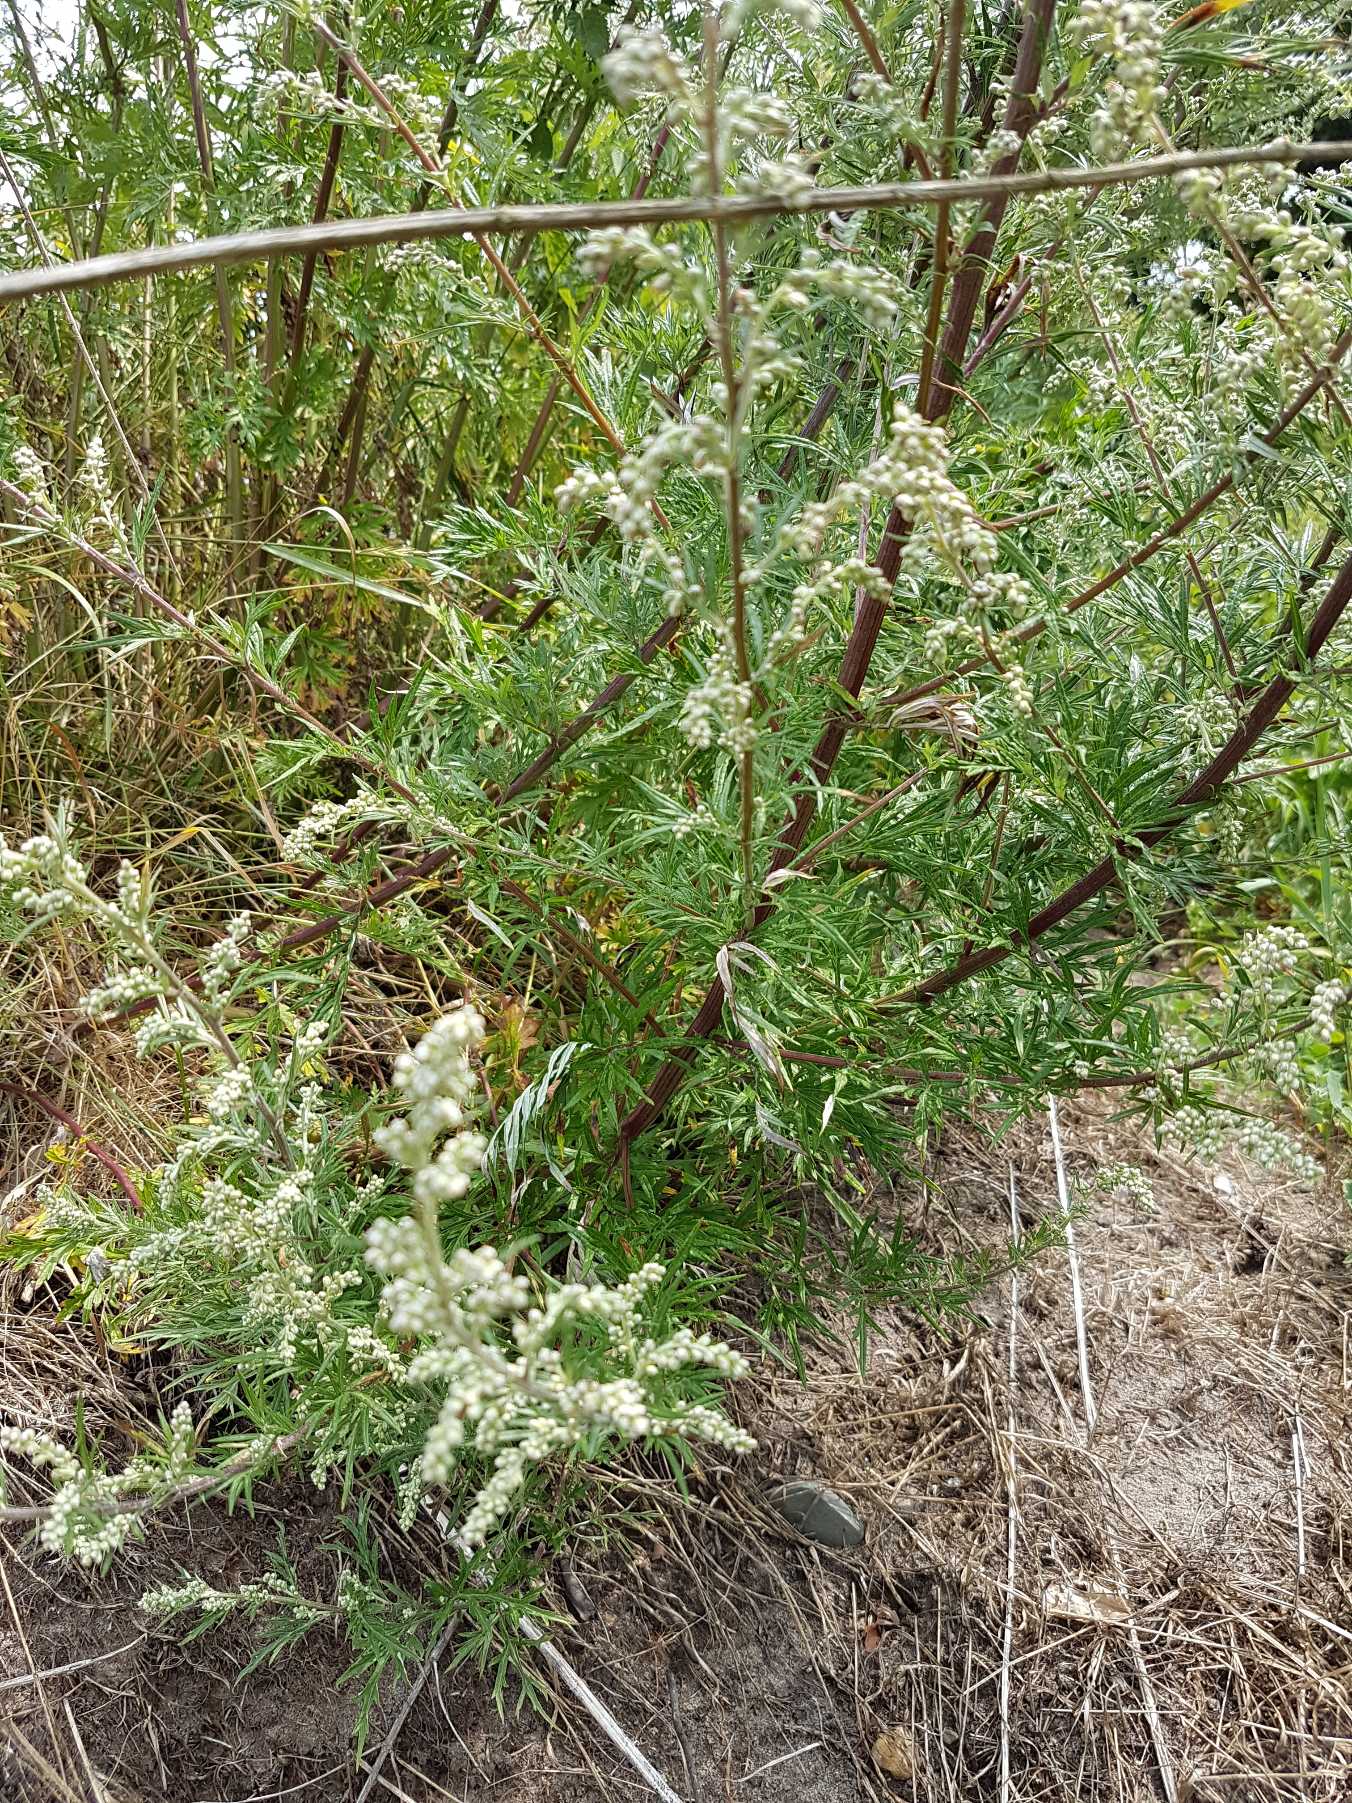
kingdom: Plantae
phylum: Tracheophyta
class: Magnoliopsida
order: Asterales
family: Asteraceae
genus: Artemisia
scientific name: Artemisia vulgaris
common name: Grå-bynke
